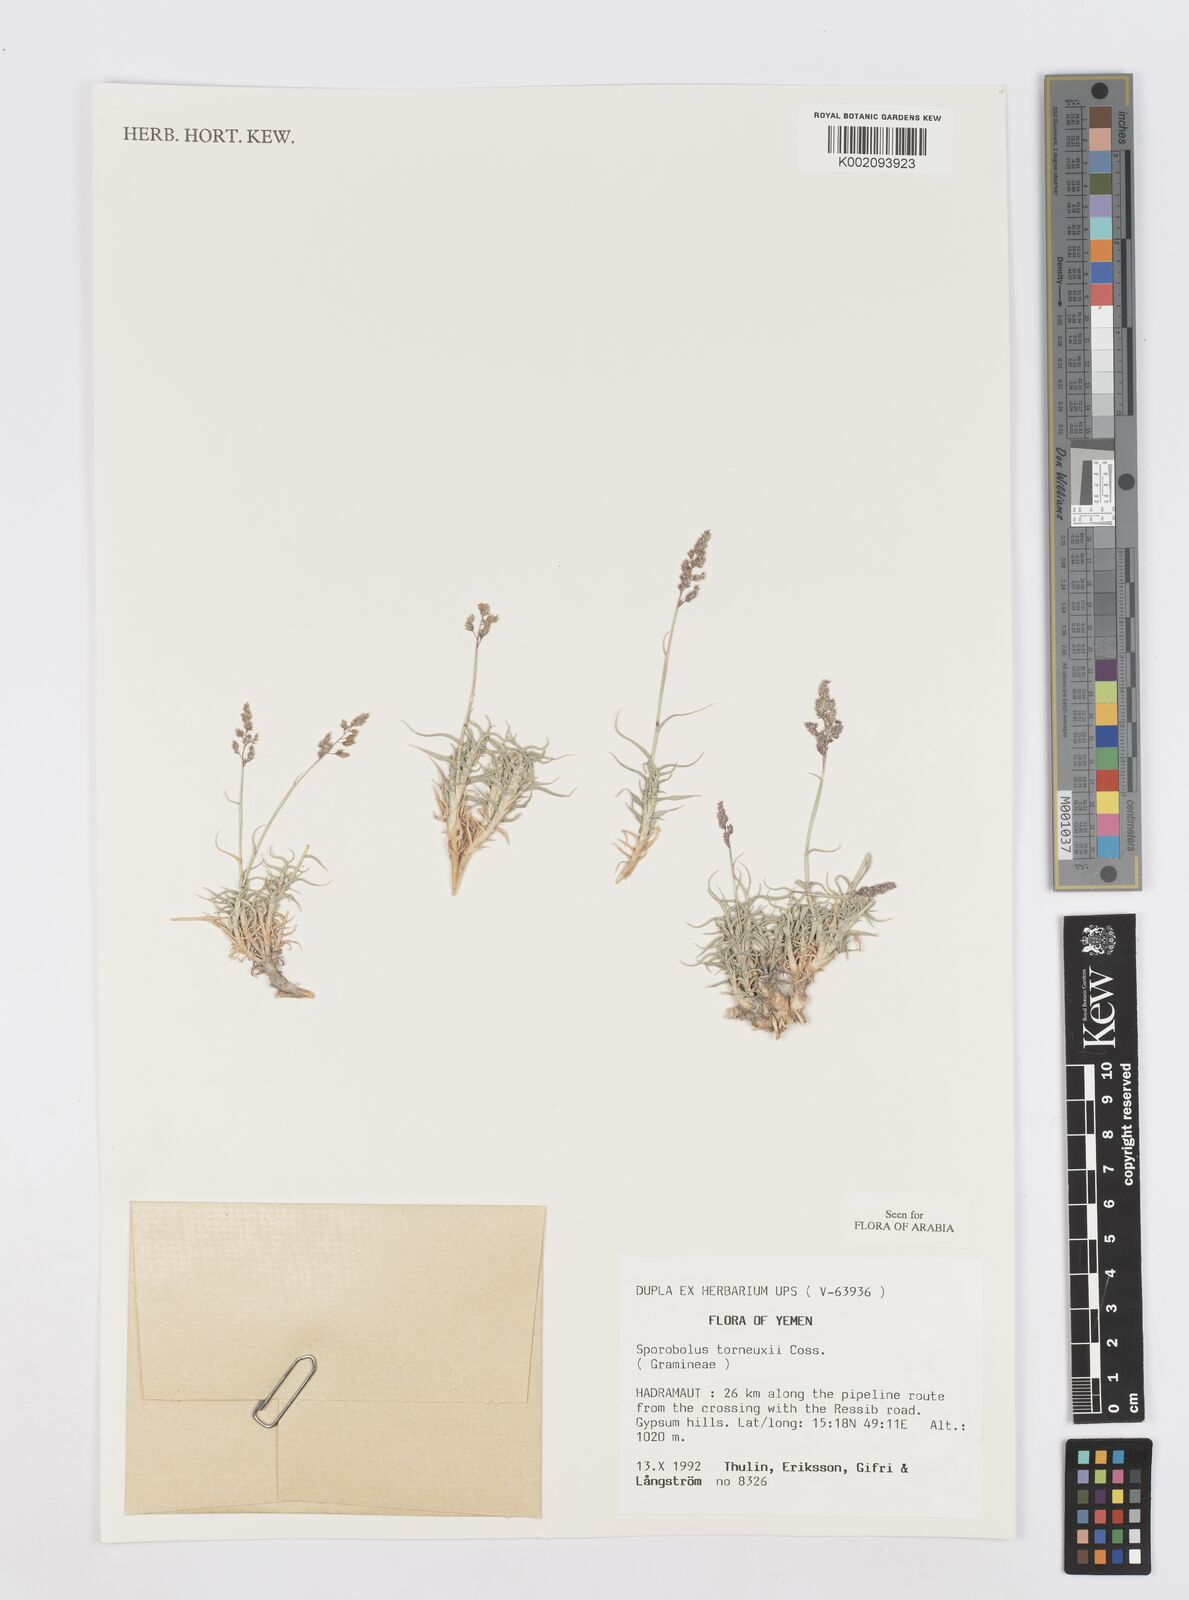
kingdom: Plantae
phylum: Tracheophyta
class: Liliopsida
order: Poales
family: Poaceae
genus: Sporobolus
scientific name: Sporobolus tourneuxii
